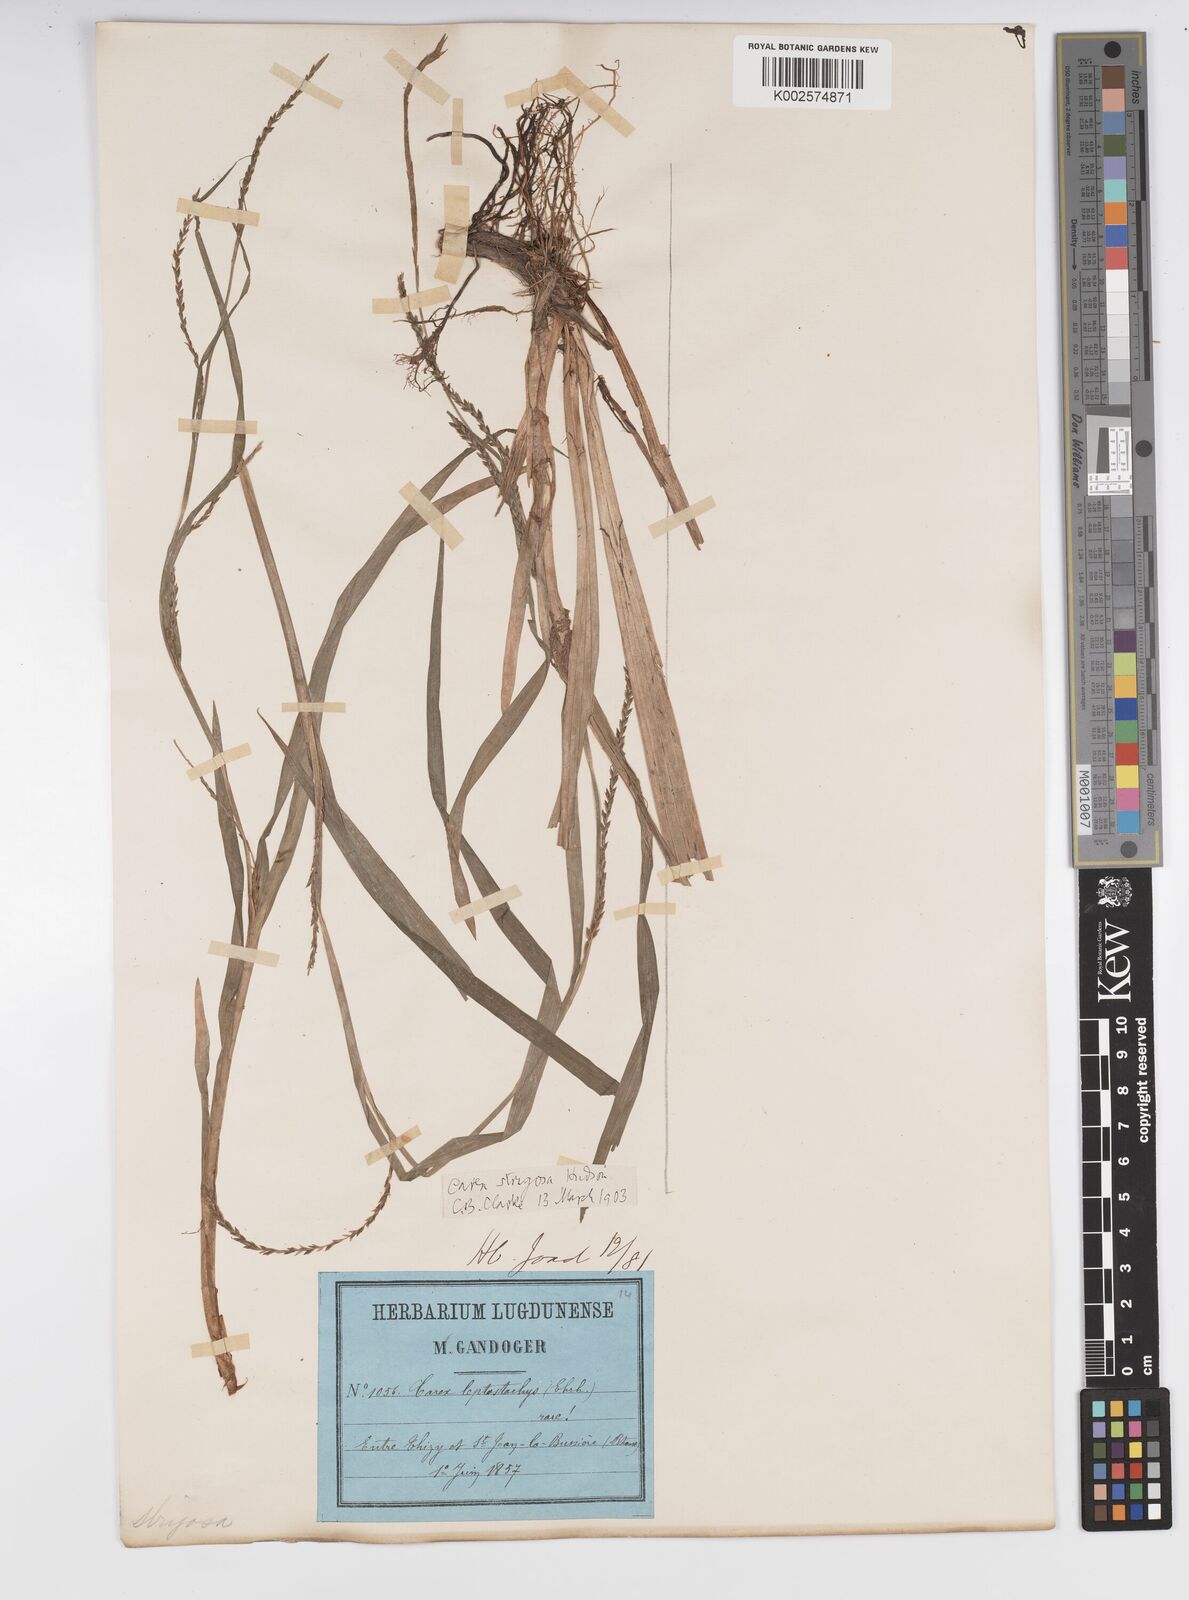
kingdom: Plantae
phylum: Tracheophyta
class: Liliopsida
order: Poales
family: Cyperaceae
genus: Carex
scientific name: Carex strigosa
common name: Thin-spiked wood-sedge
